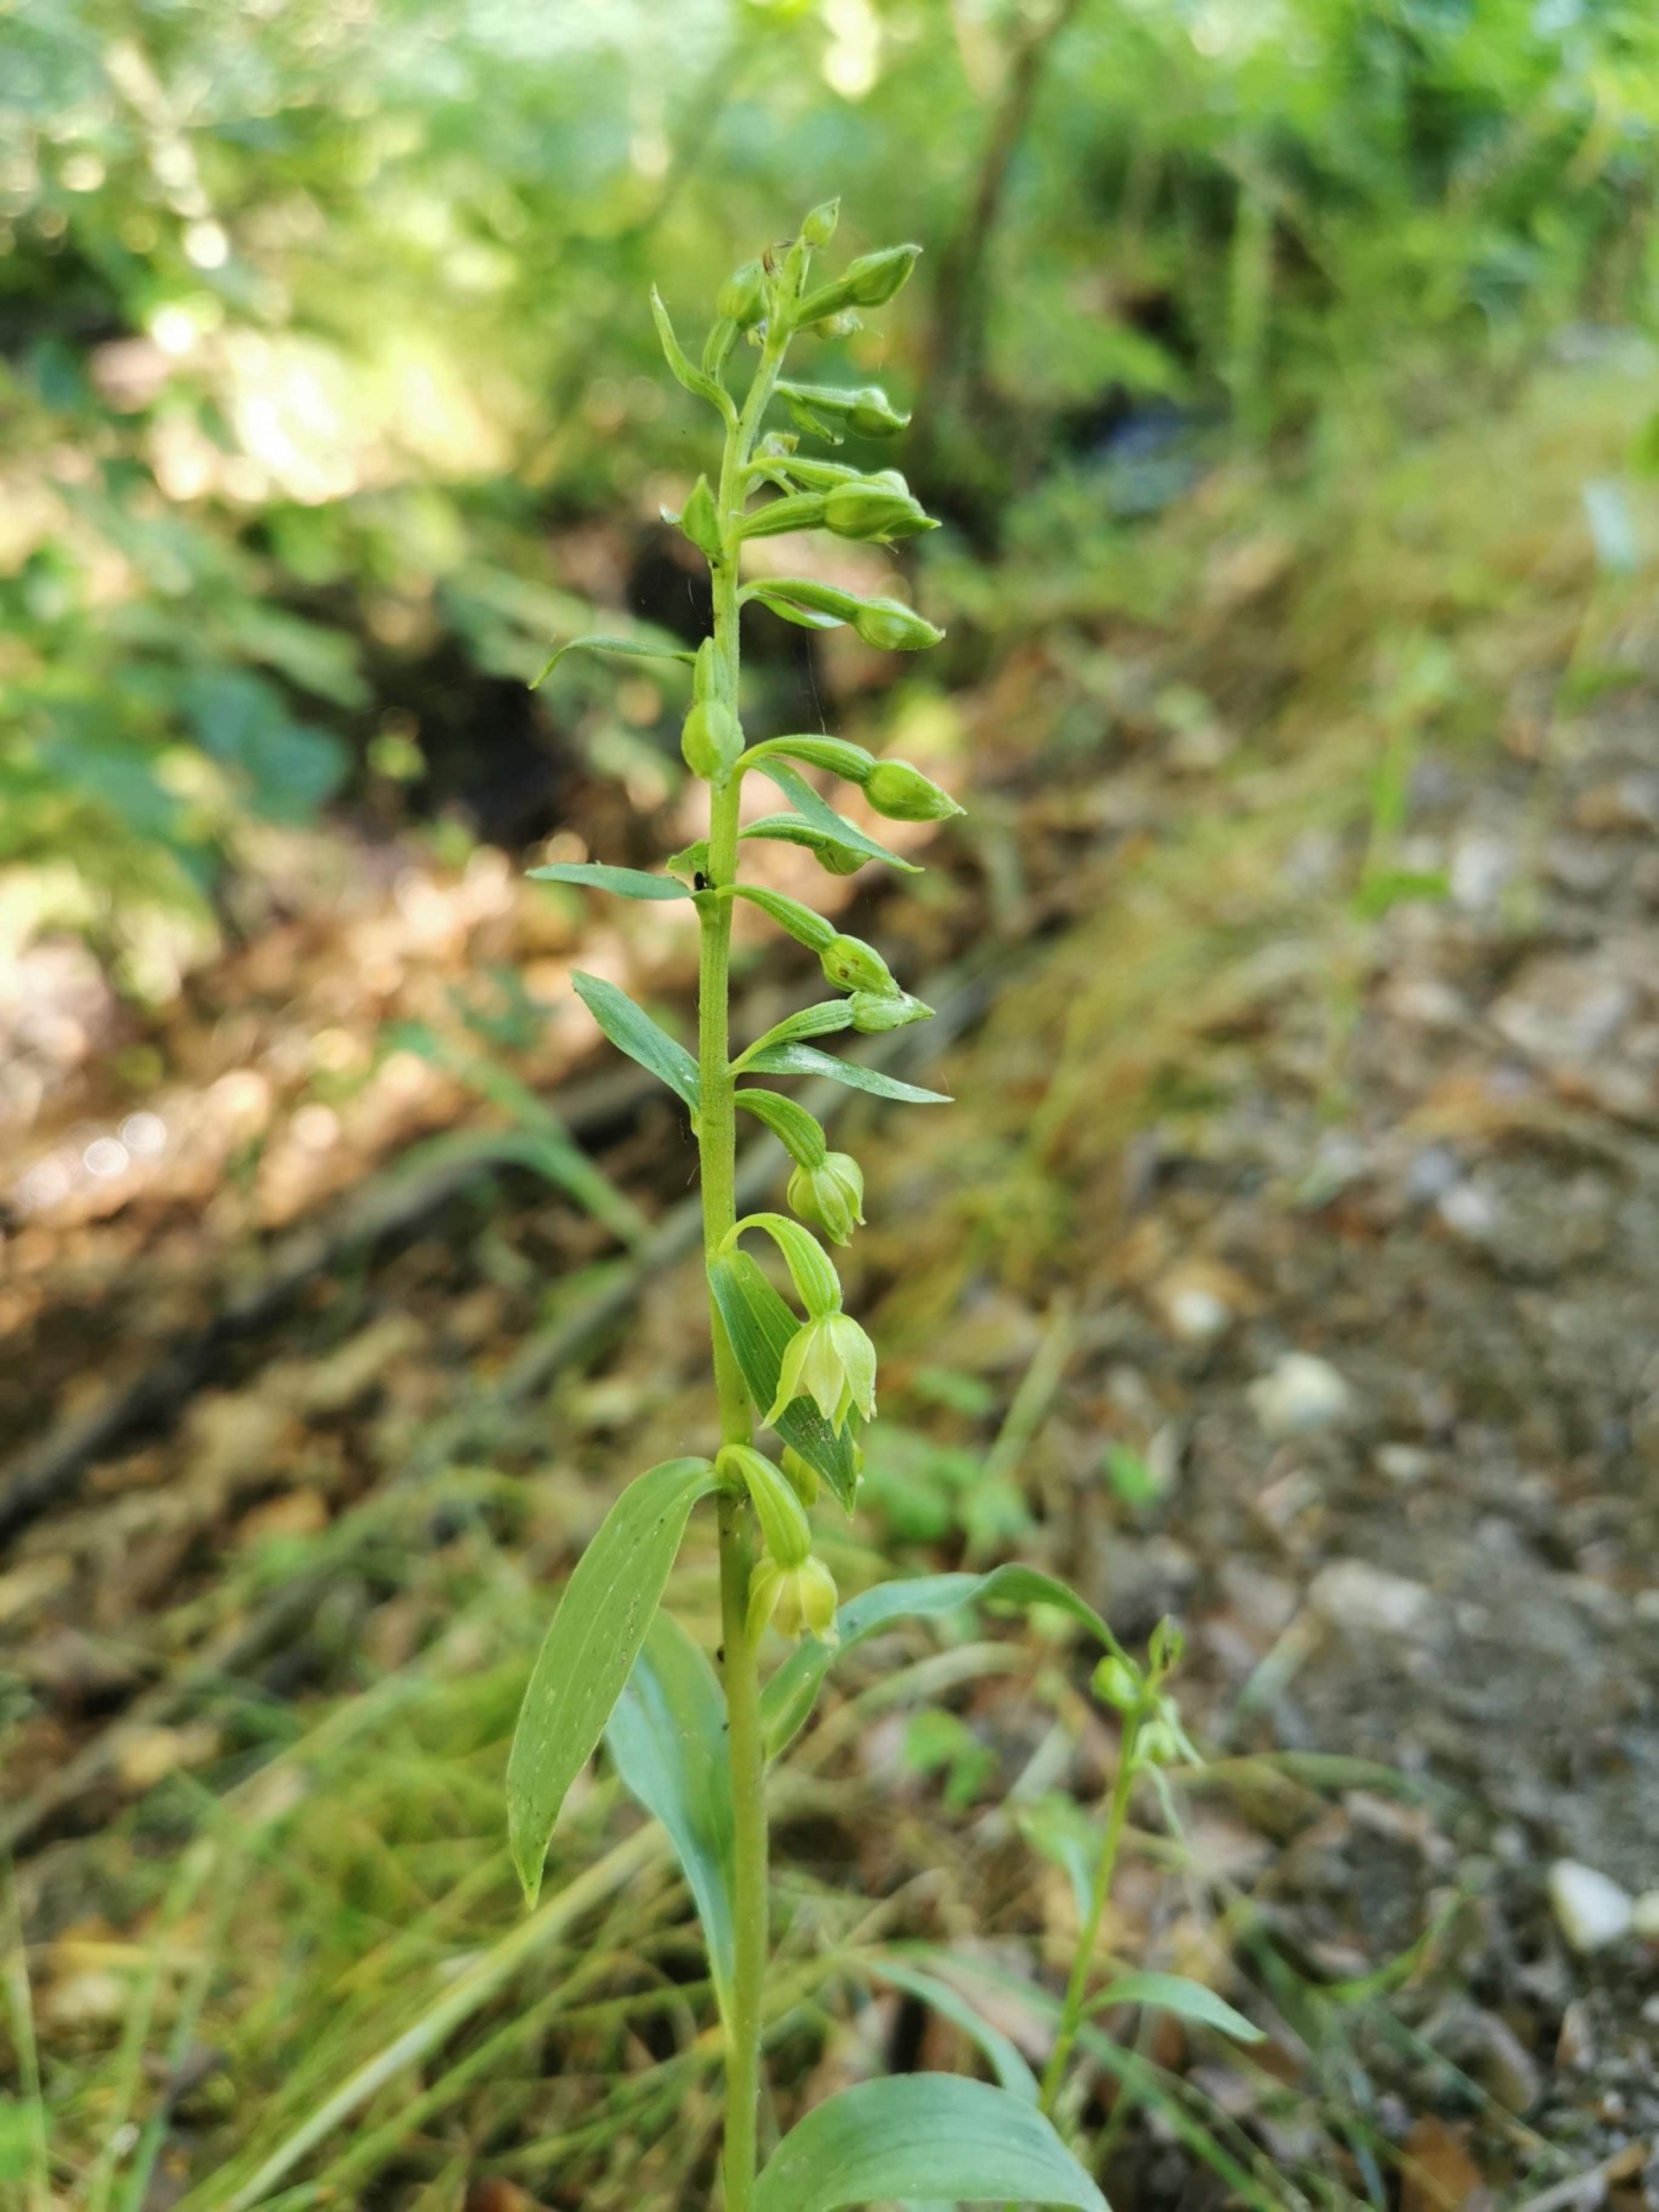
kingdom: Plantae
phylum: Tracheophyta
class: Liliopsida
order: Asparagales
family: Orchidaceae
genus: Epipactis
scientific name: Epipactis phyllanthes
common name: Nikkende hullæbe
